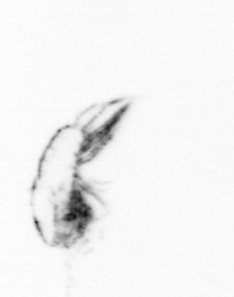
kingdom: Animalia
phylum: Arthropoda
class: Copepoda
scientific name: Copepoda
